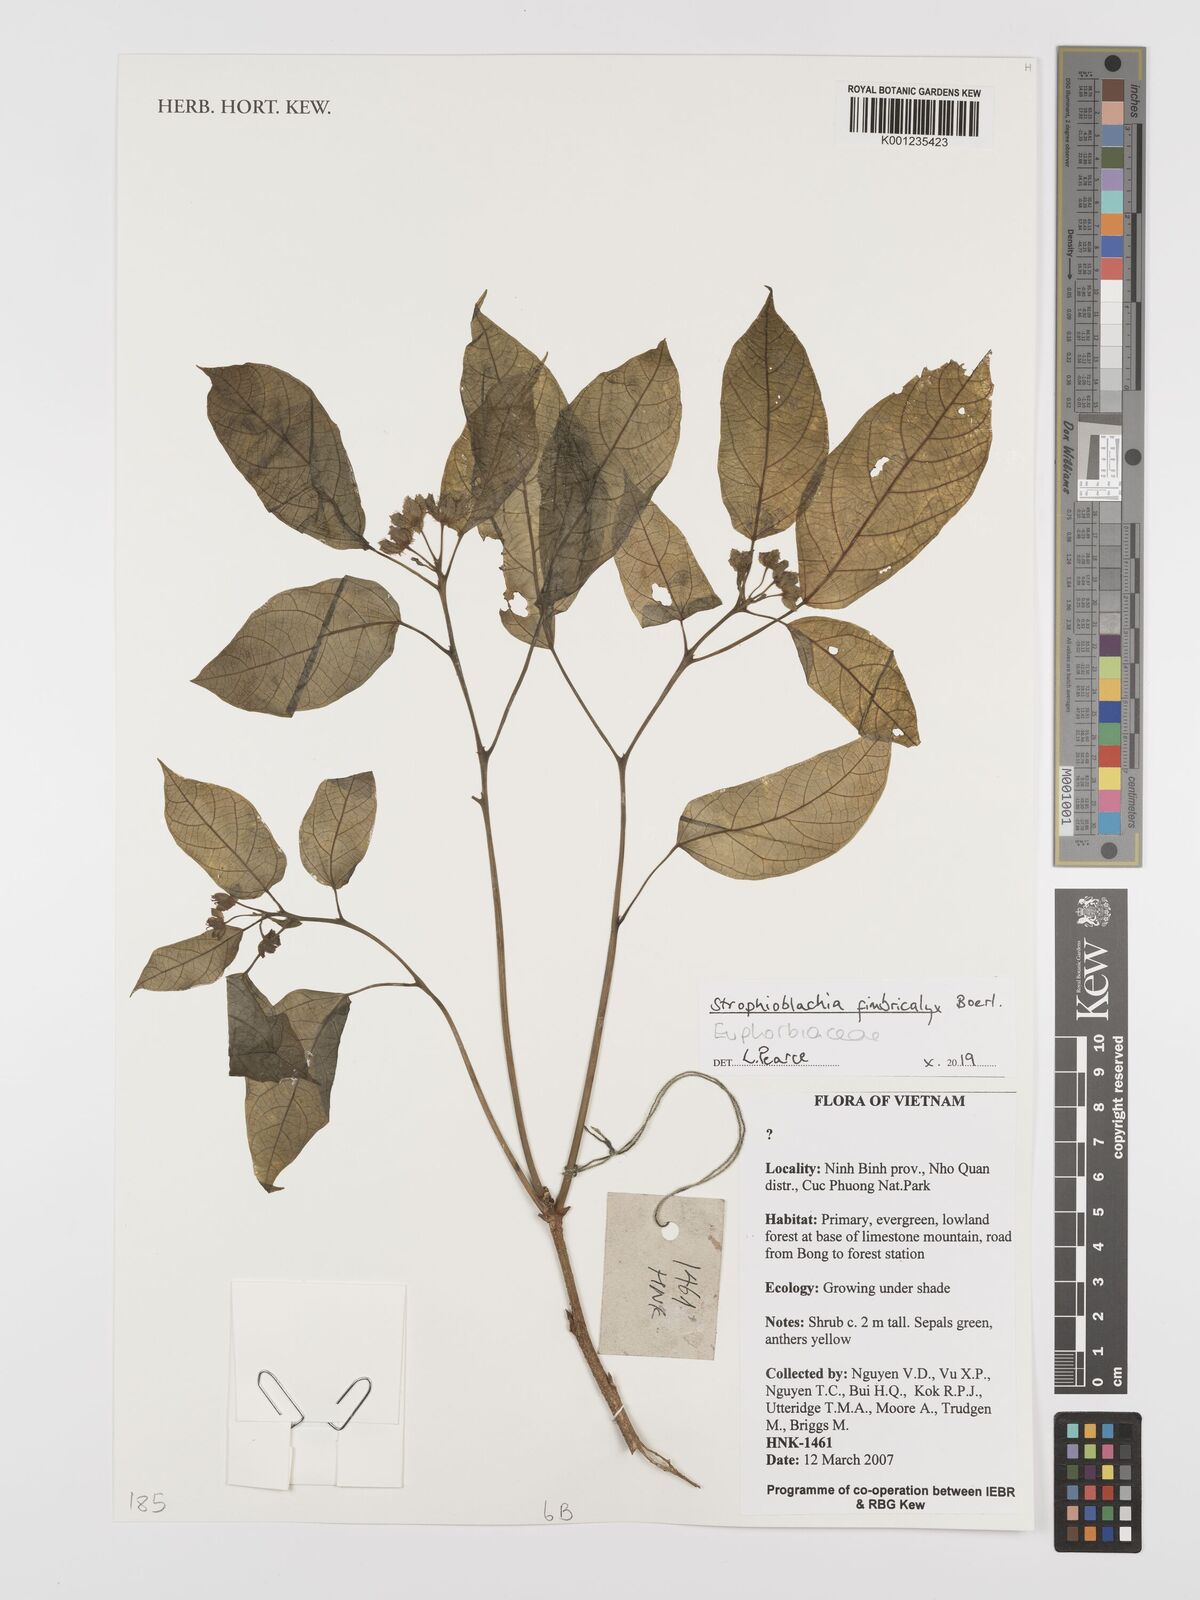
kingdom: Plantae
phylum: Tracheophyta
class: Magnoliopsida
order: Malpighiales
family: Euphorbiaceae
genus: Strophioblachia
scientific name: Strophioblachia fimbricalyx
